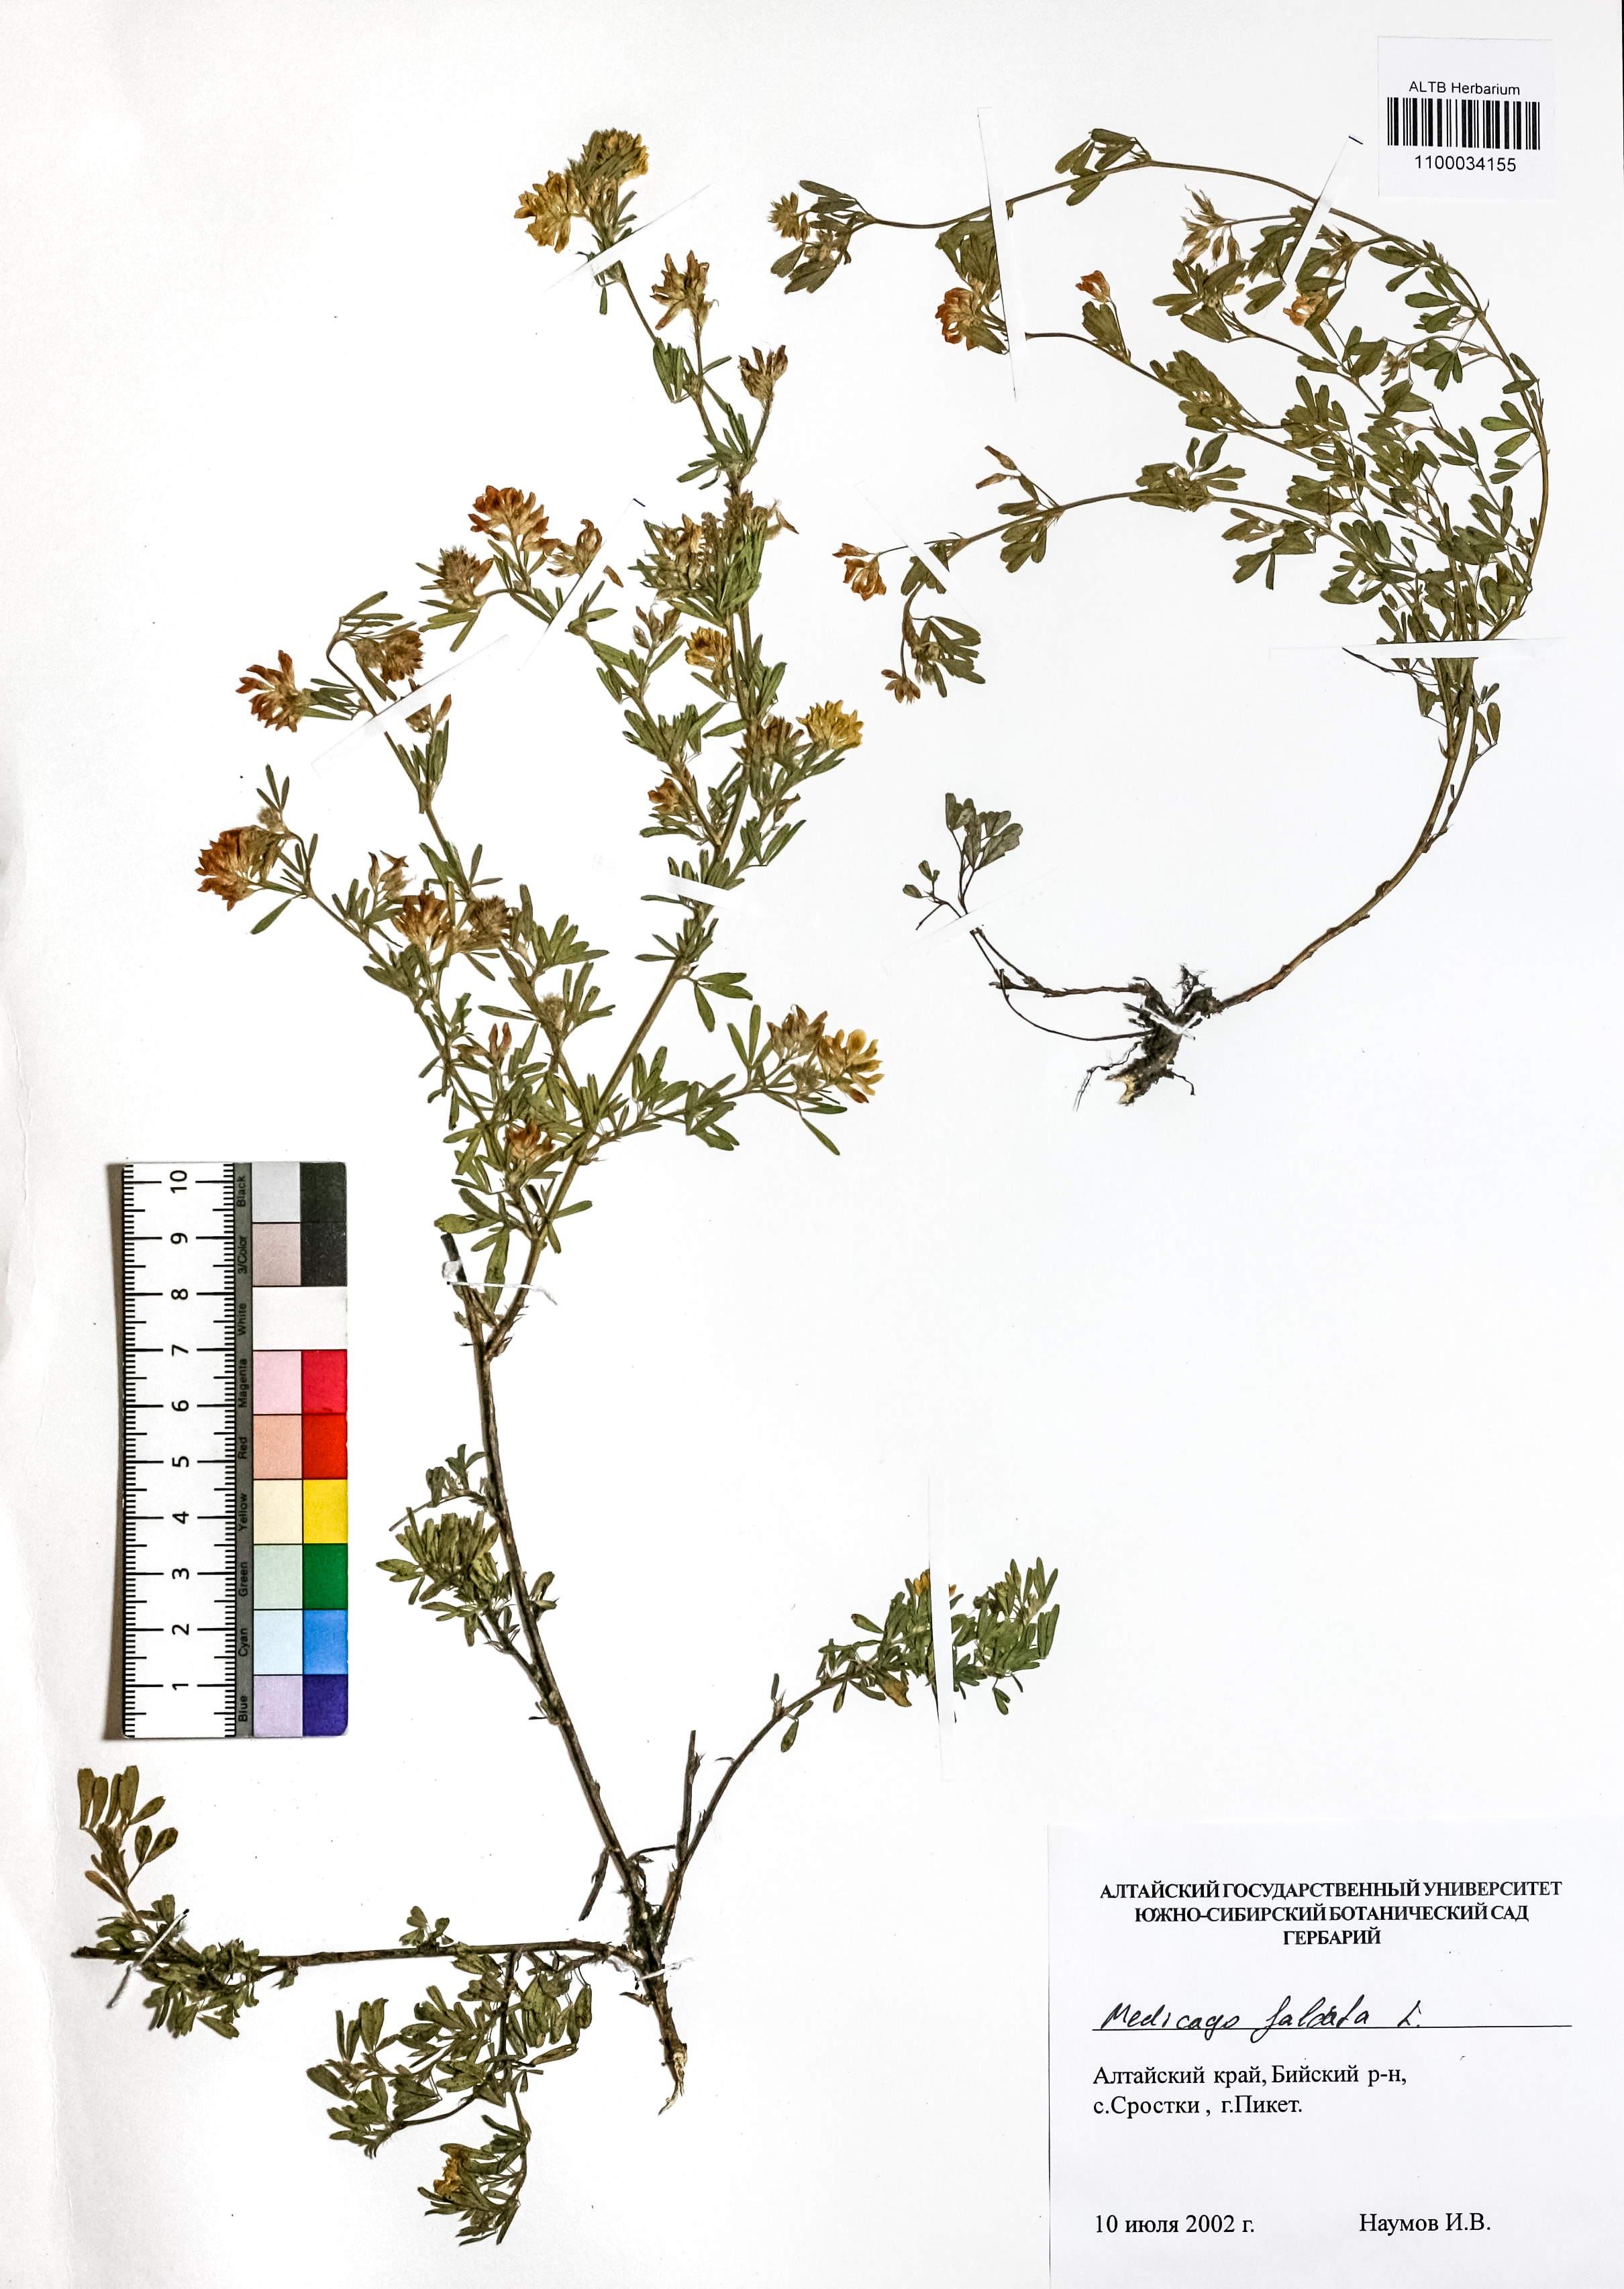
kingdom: Plantae
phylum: Tracheophyta
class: Magnoliopsida
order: Fabales
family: Fabaceae
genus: Medicago
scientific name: Medicago falcata
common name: Sickle medick
